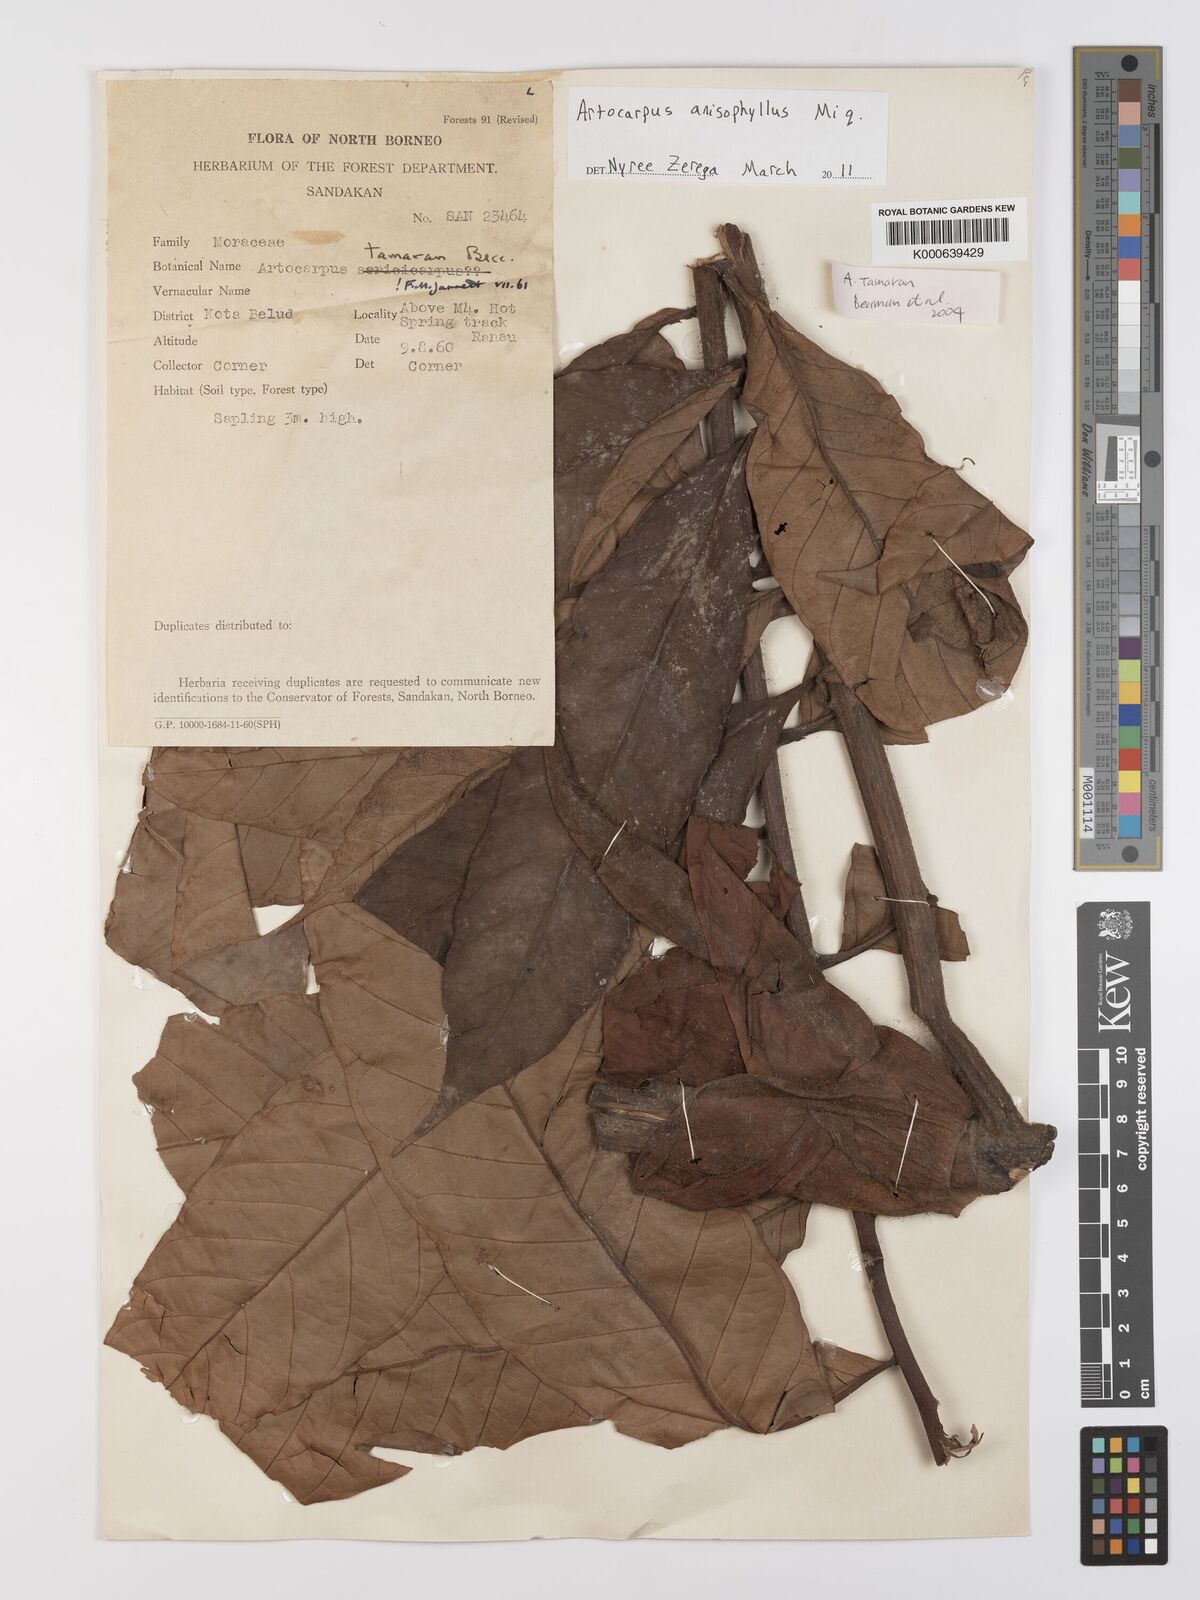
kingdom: Plantae
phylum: Tracheophyta
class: Magnoliopsida
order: Rosales
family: Moraceae
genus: Artocarpus
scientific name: Artocarpus anisophyllus
